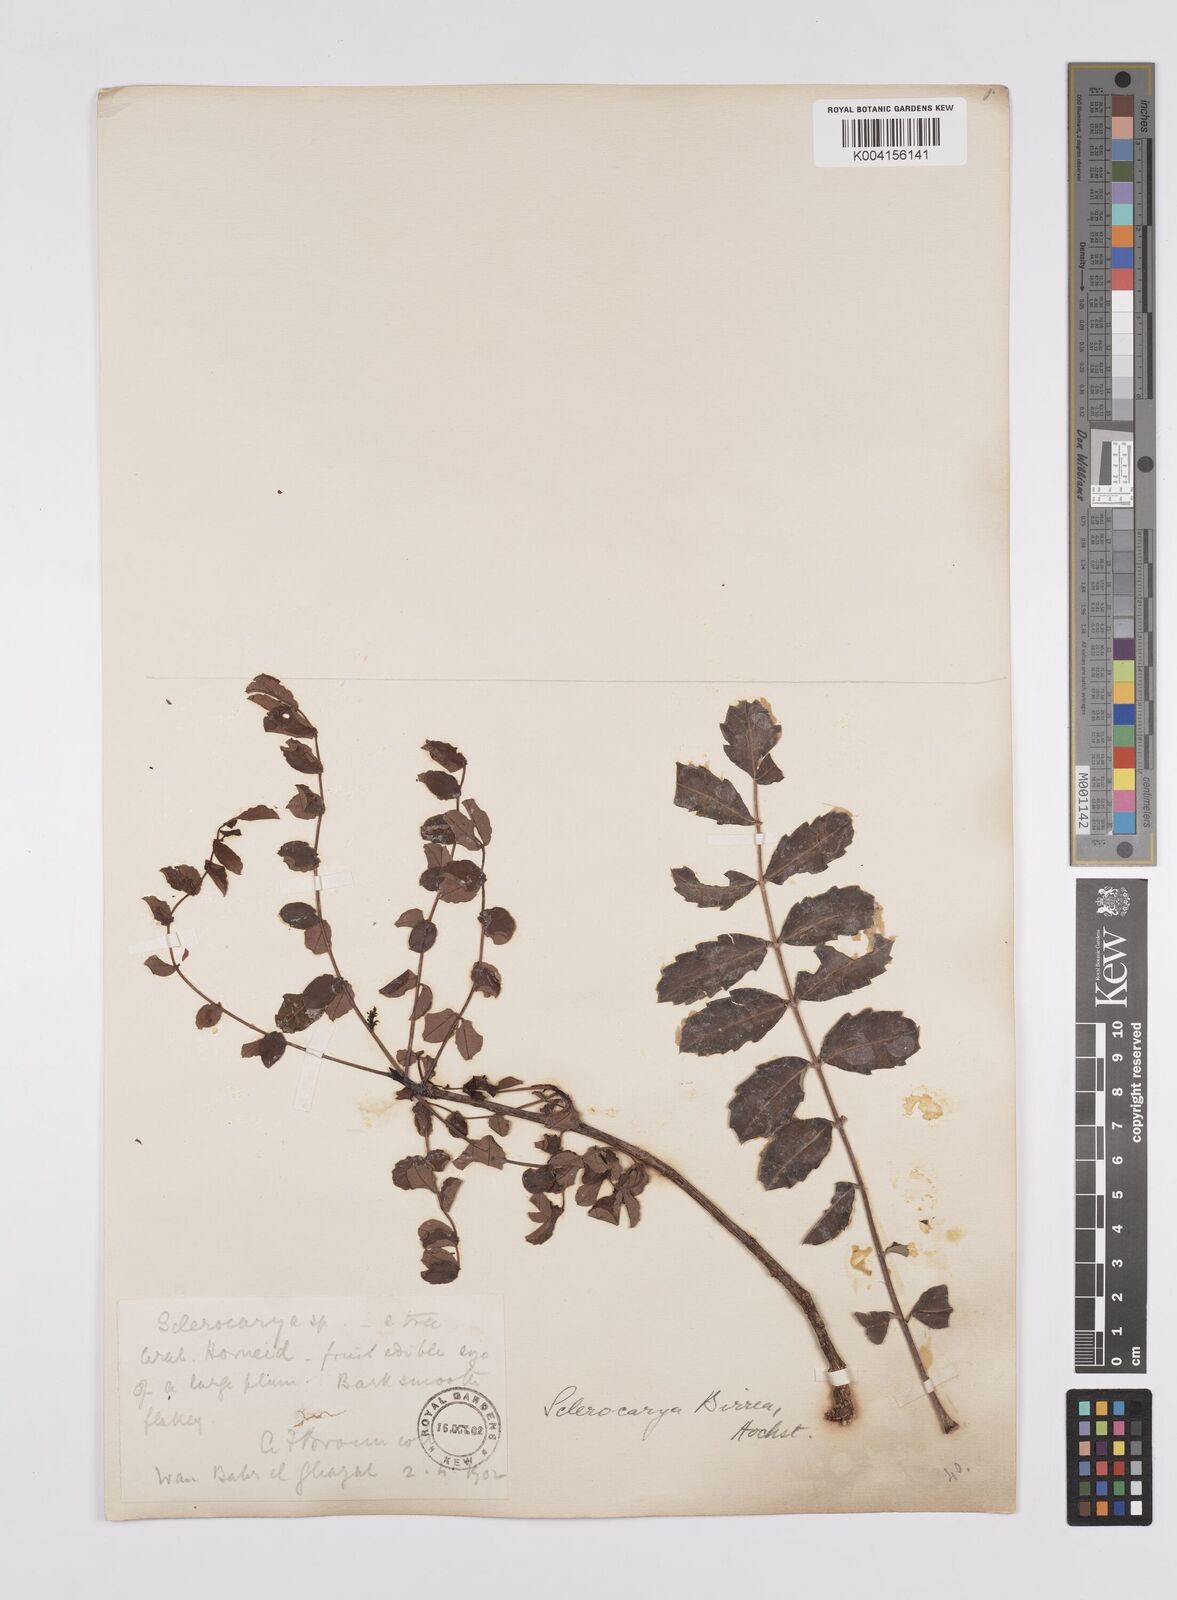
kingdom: Plantae
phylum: Tracheophyta
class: Magnoliopsida
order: Sapindales
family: Anacardiaceae
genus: Sclerocarya
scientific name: Sclerocarya birrea
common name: Marula
